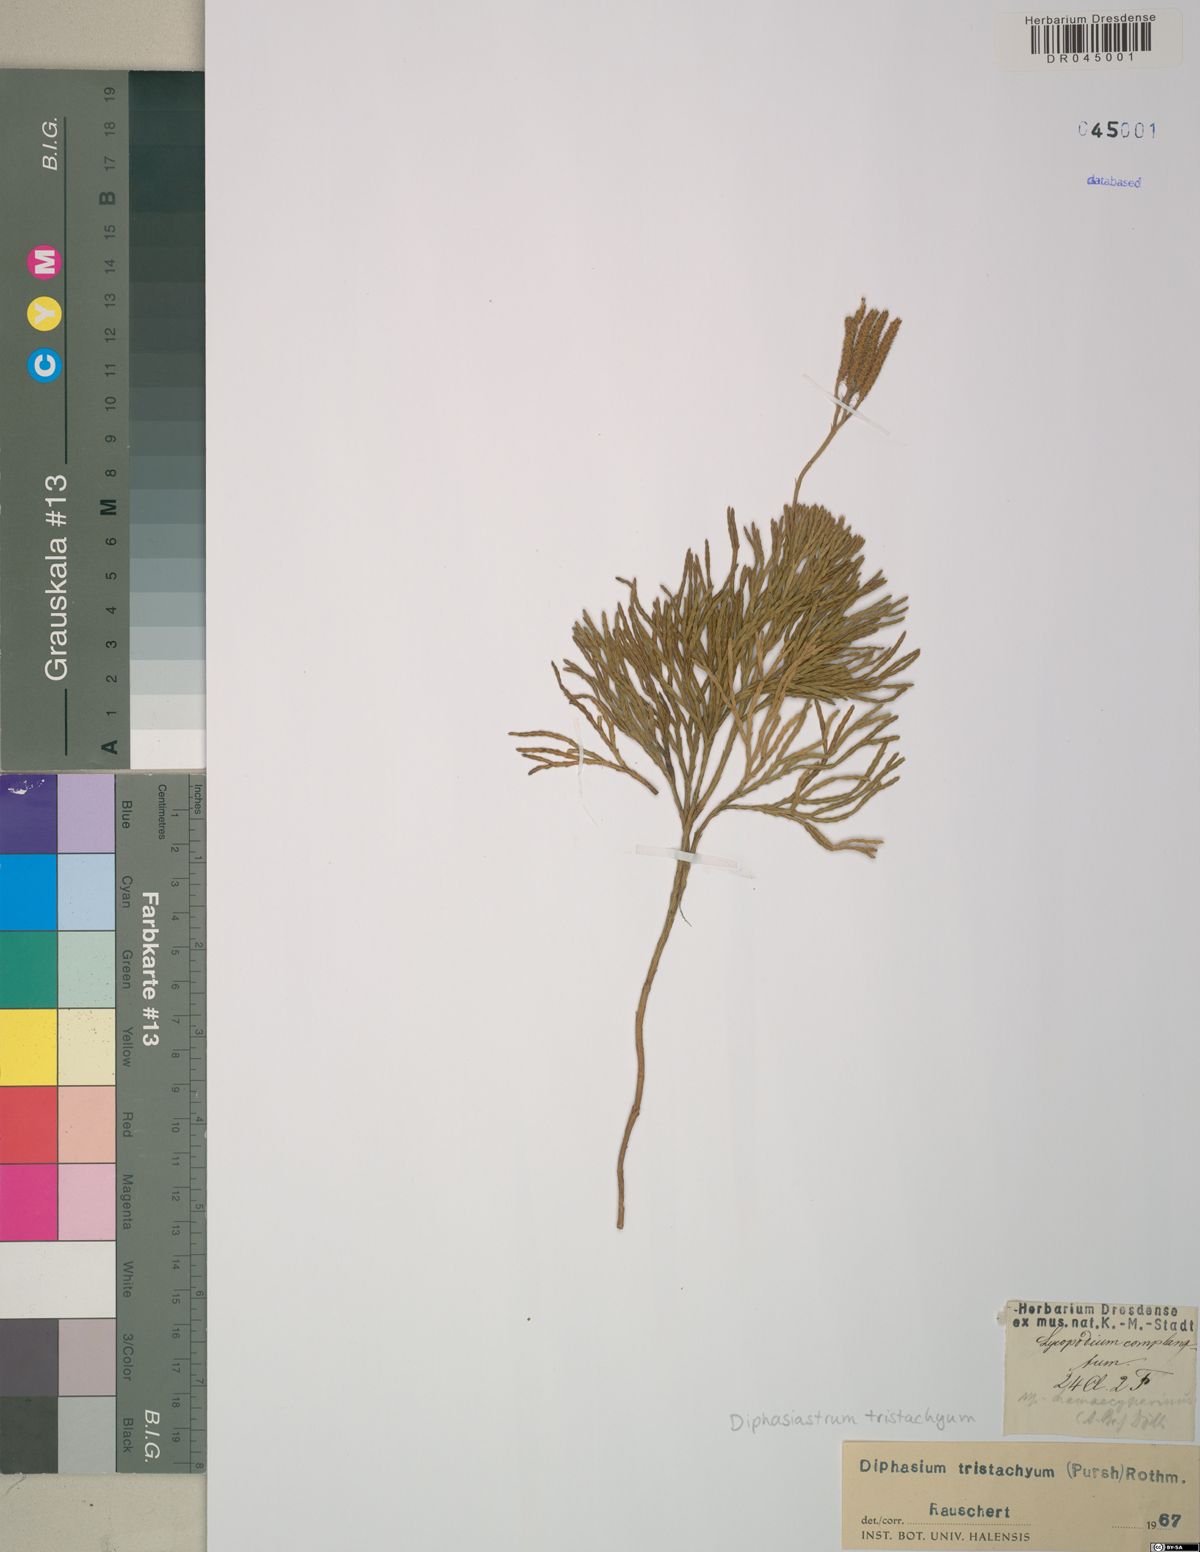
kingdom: Plantae
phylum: Tracheophyta
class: Lycopodiopsida
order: Lycopodiales
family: Lycopodiaceae
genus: Diphasiastrum
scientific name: Diphasiastrum tristachyum
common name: Blue ground-cedar
